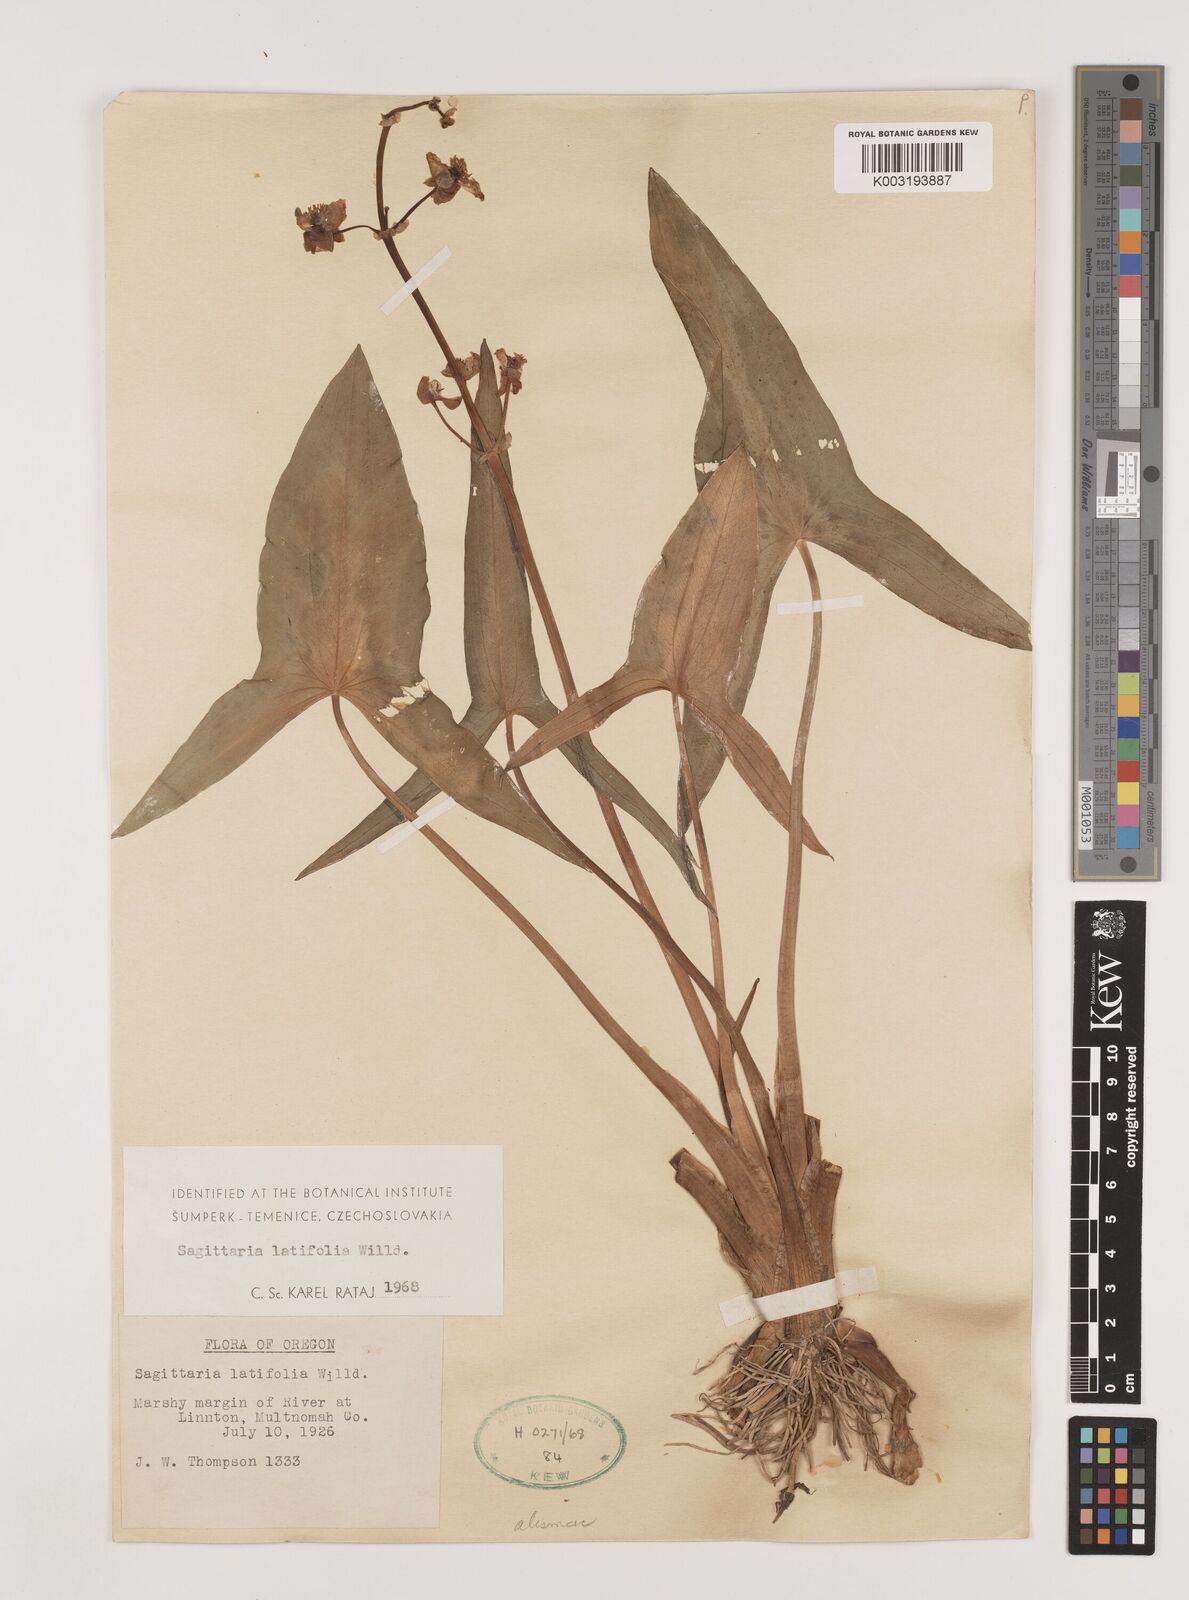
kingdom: Plantae
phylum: Tracheophyta
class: Liliopsida
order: Alismatales
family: Alismataceae
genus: Sagittaria
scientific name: Sagittaria latifolia
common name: Duck-potato
